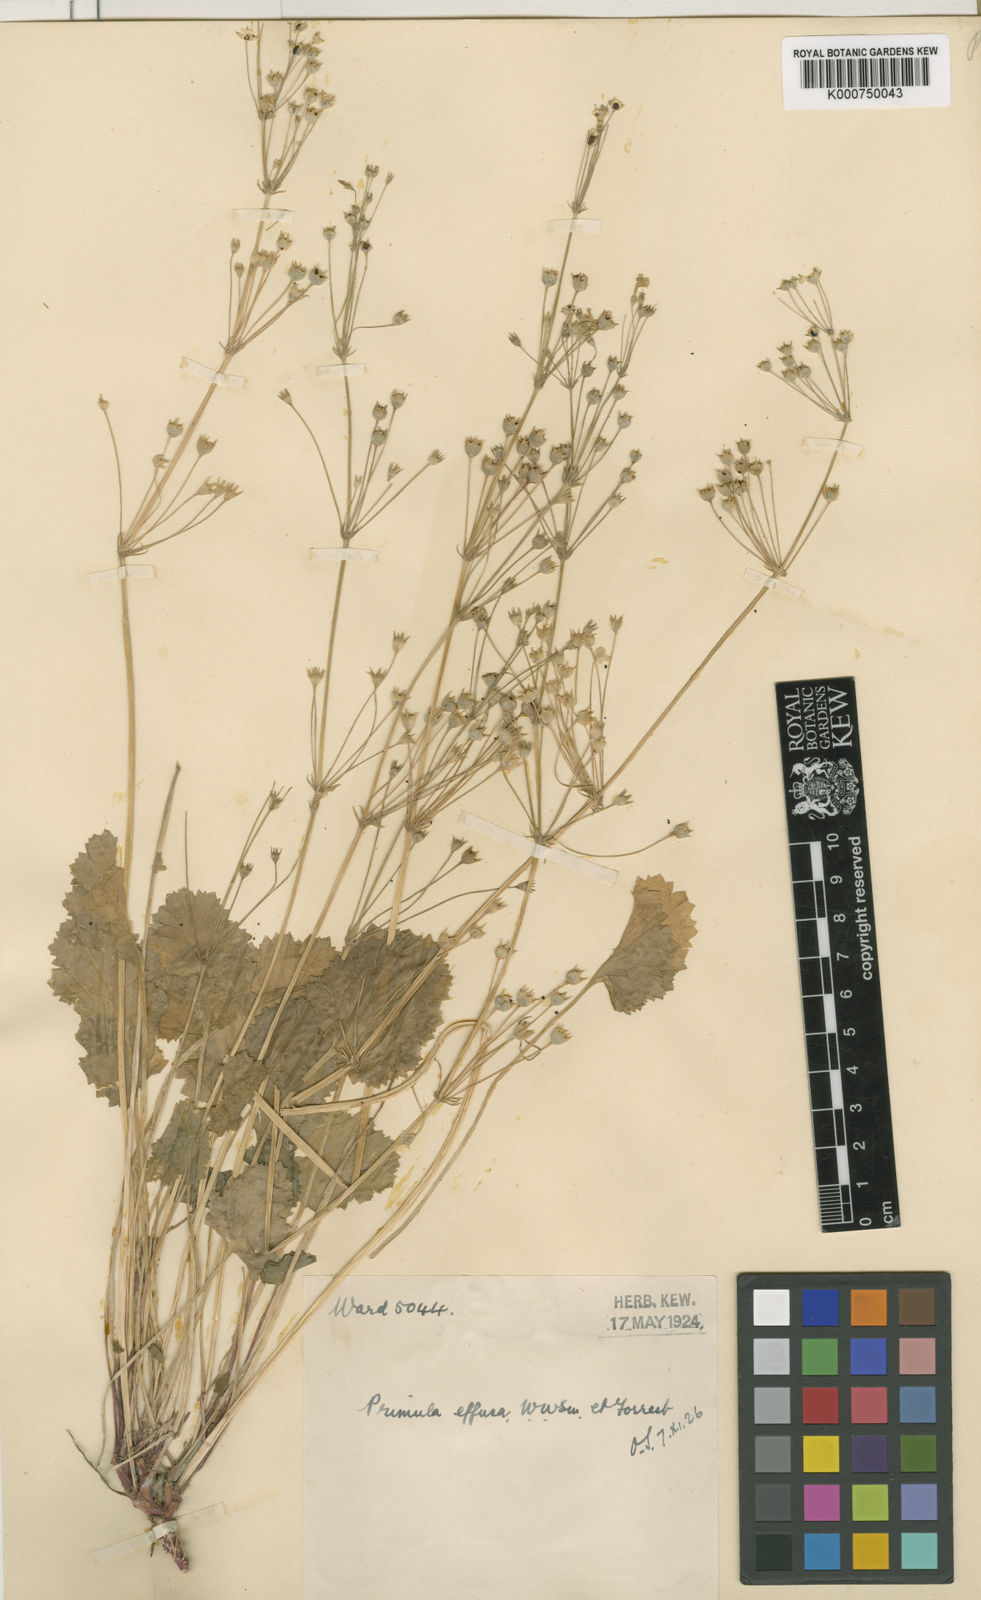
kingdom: Plantae
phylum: Tracheophyta
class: Magnoliopsida
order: Ericales
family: Primulaceae
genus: Primula
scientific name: Primula effusa
